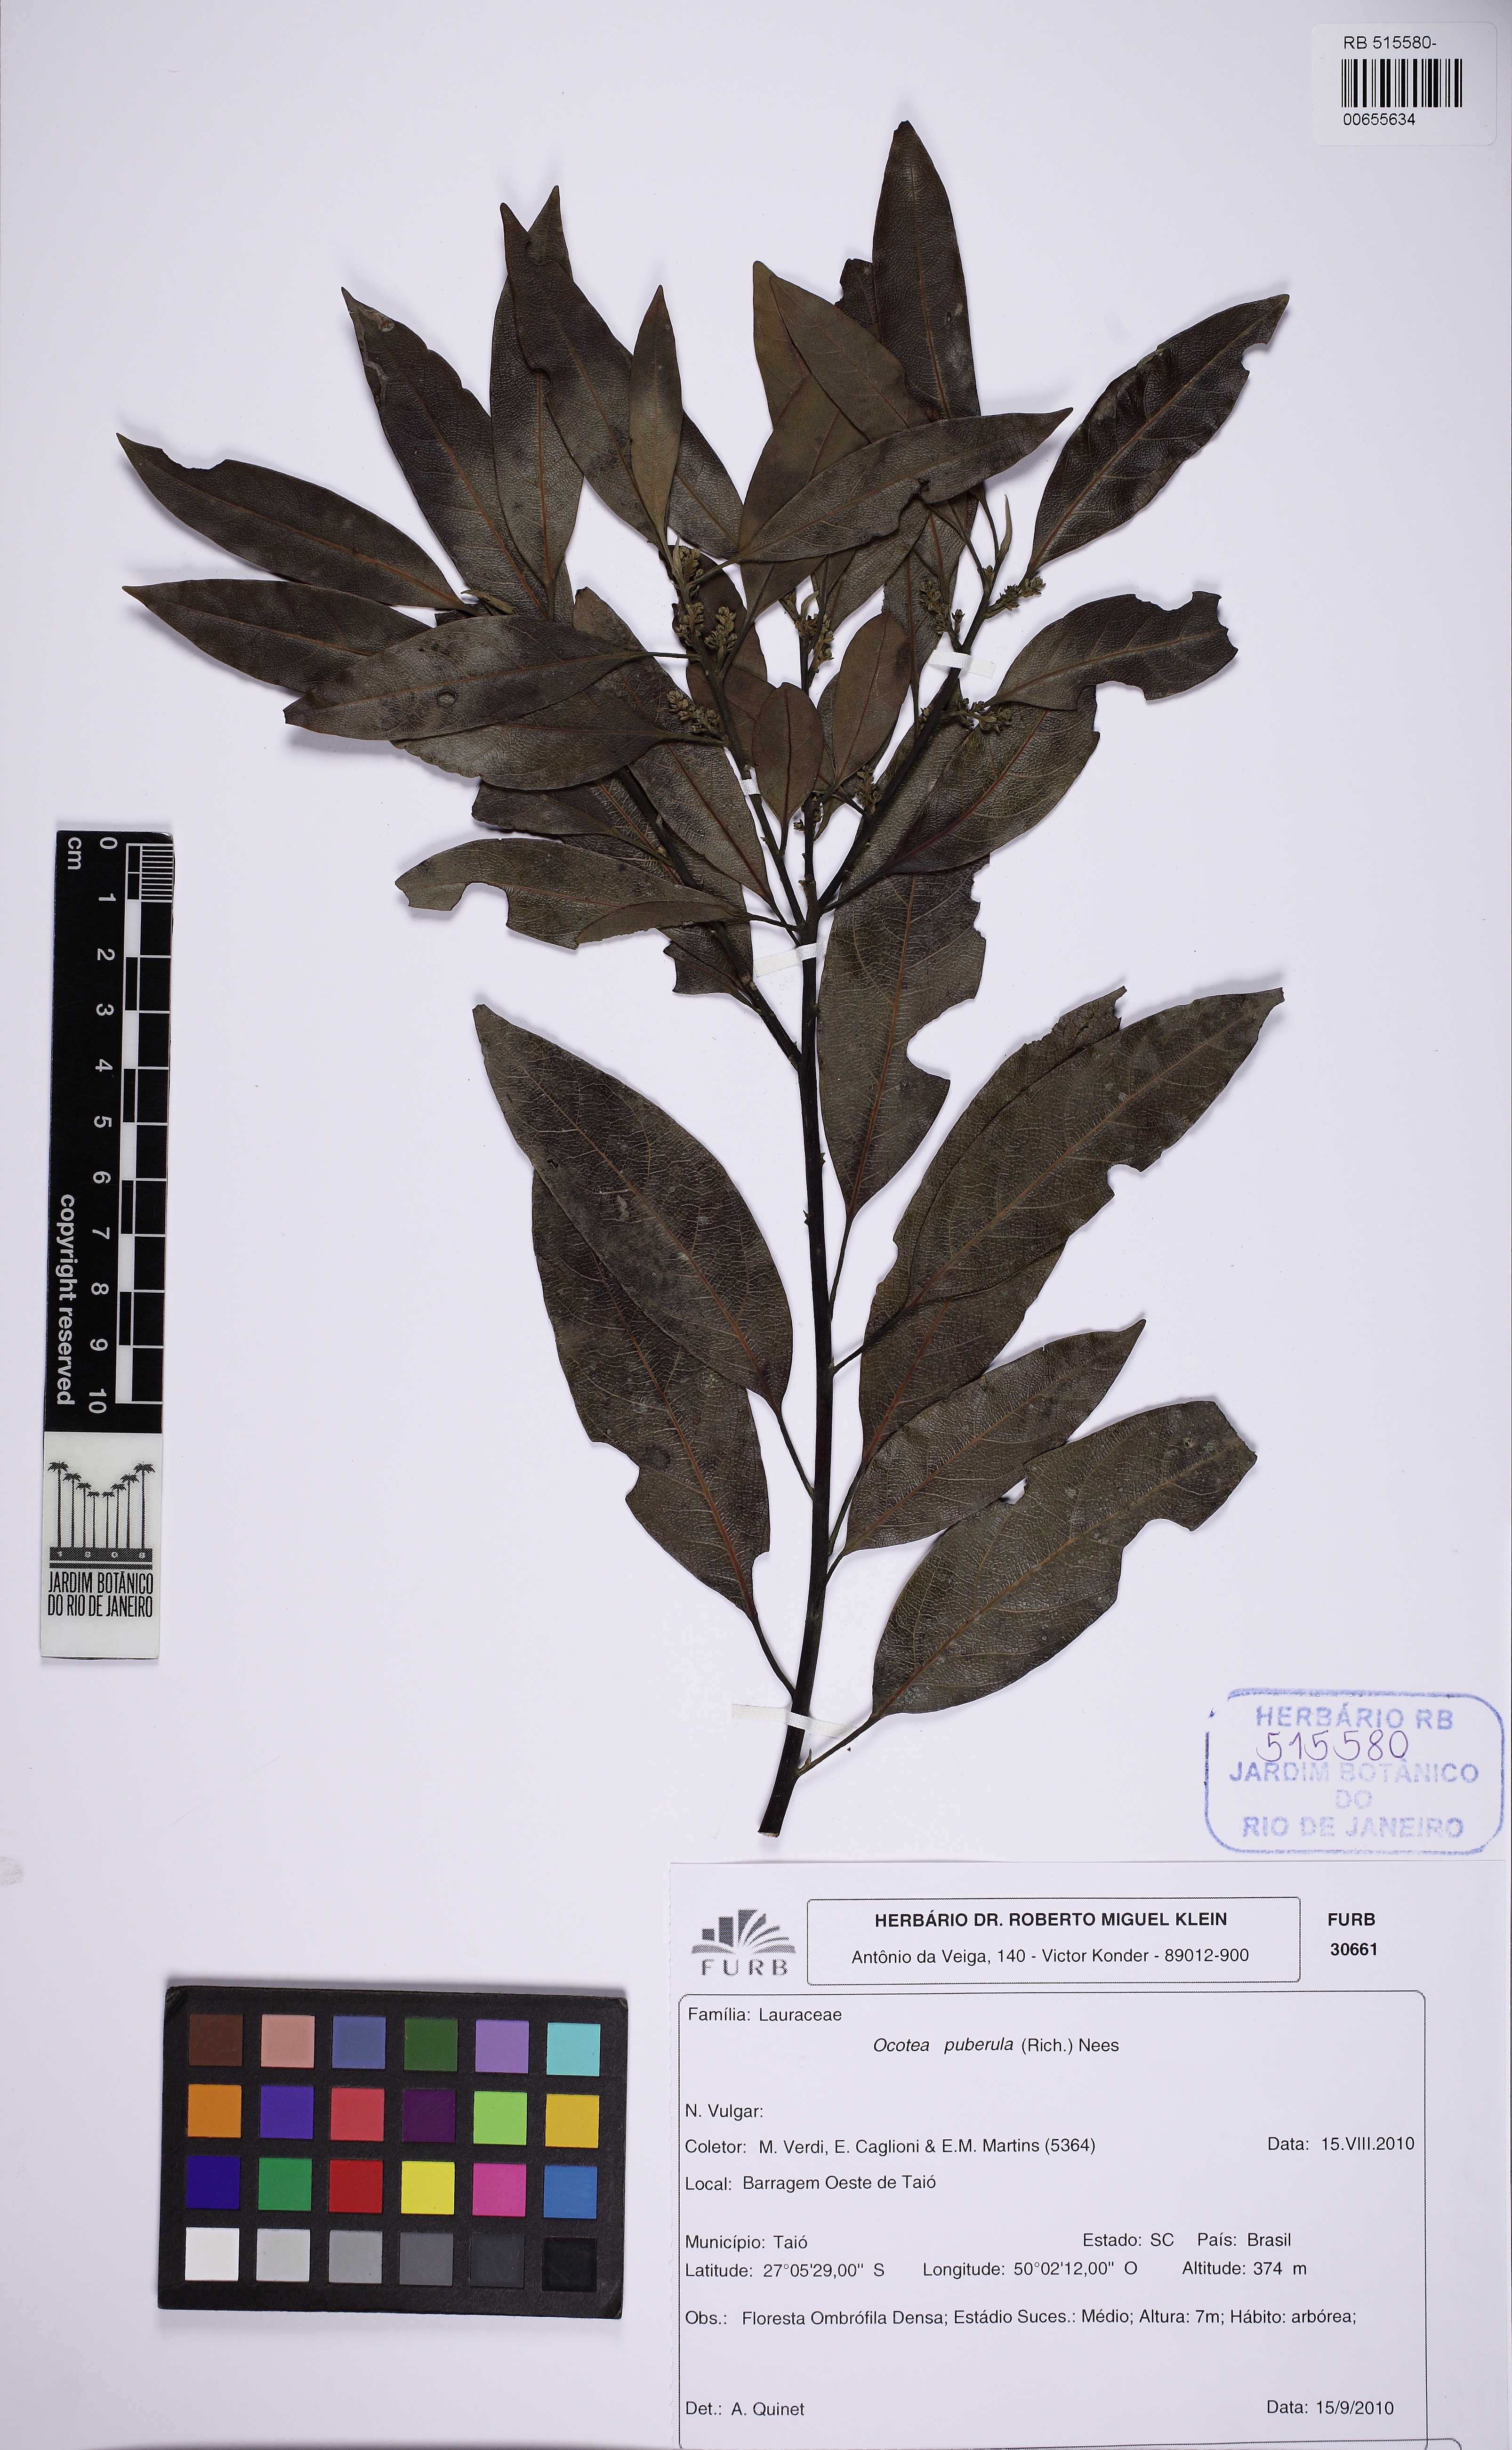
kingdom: Plantae
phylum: Tracheophyta
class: Magnoliopsida
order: Laurales
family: Lauraceae
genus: Ocotea
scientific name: Ocotea puberula
